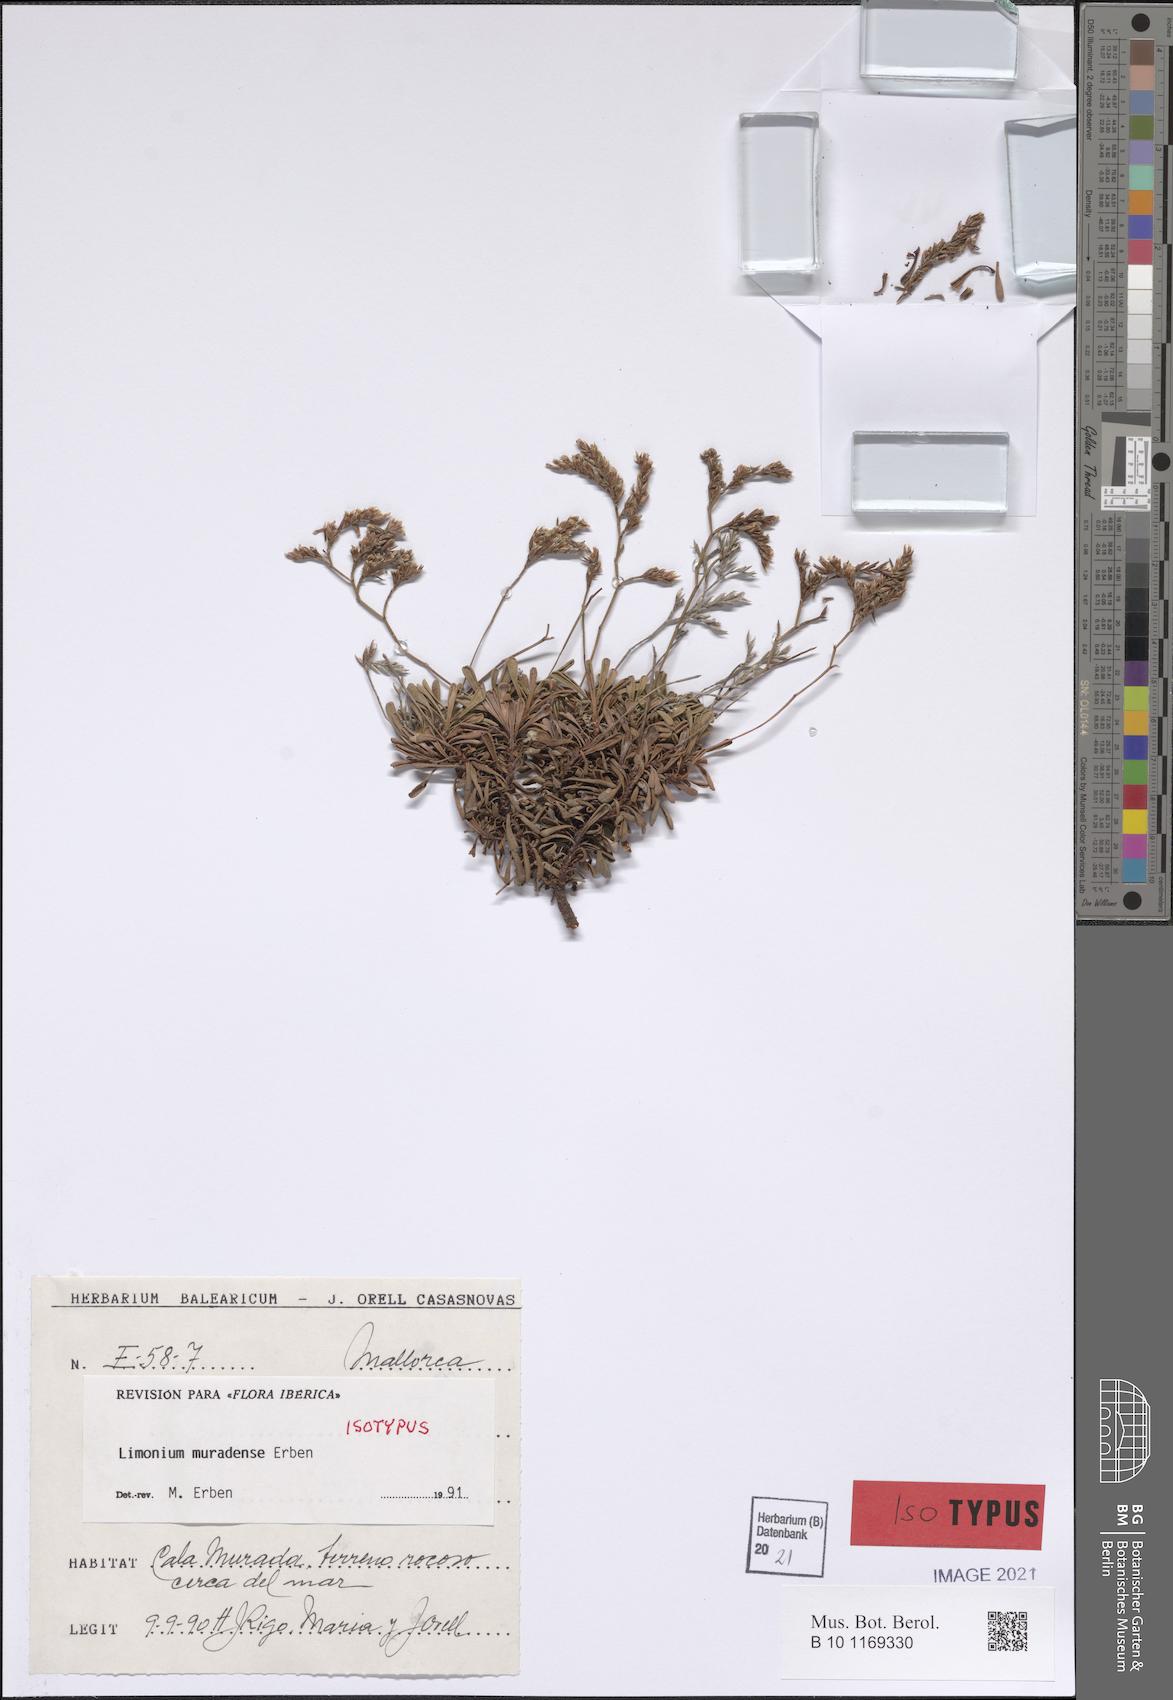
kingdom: Plantae
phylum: Tracheophyta
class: Magnoliopsida
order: Caryophyllales
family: Plumbaginaceae
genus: Limonium
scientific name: Limonium muradense
